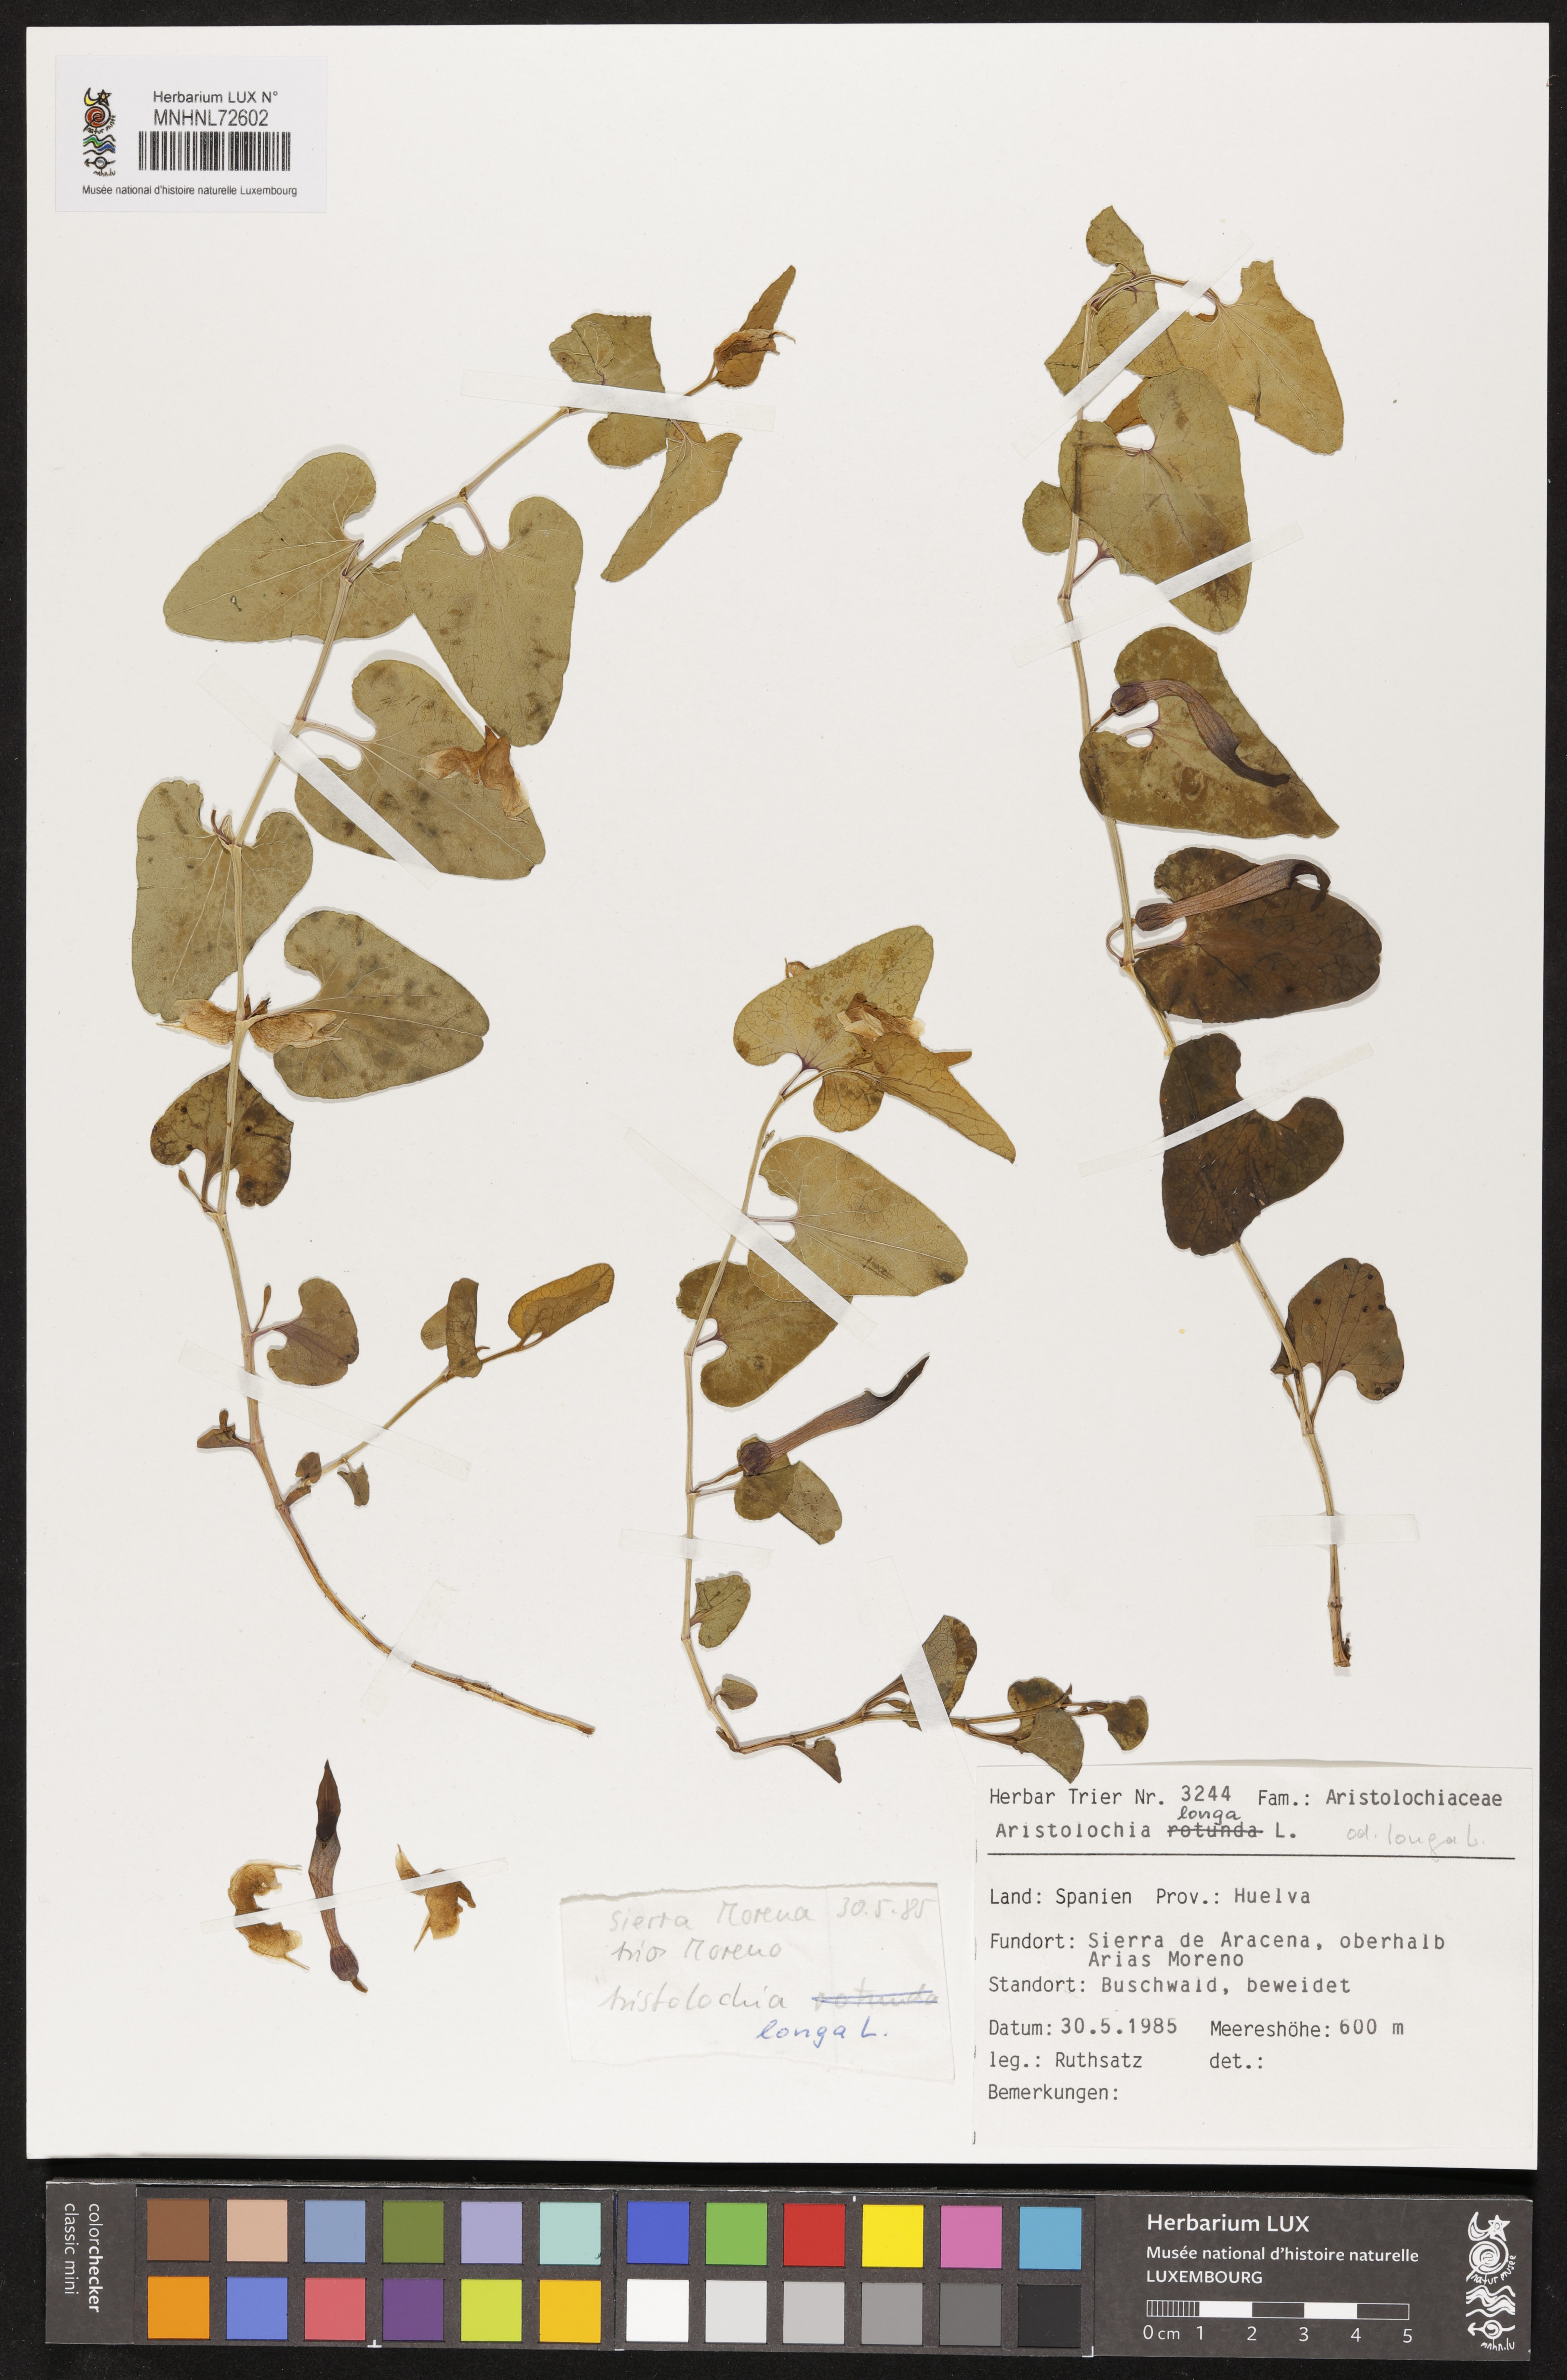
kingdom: Plantae
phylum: Tracheophyta
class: Magnoliopsida
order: Piperales
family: Aristolochiaceae
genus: Aristolochia
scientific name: Aristolochia fontanesii
